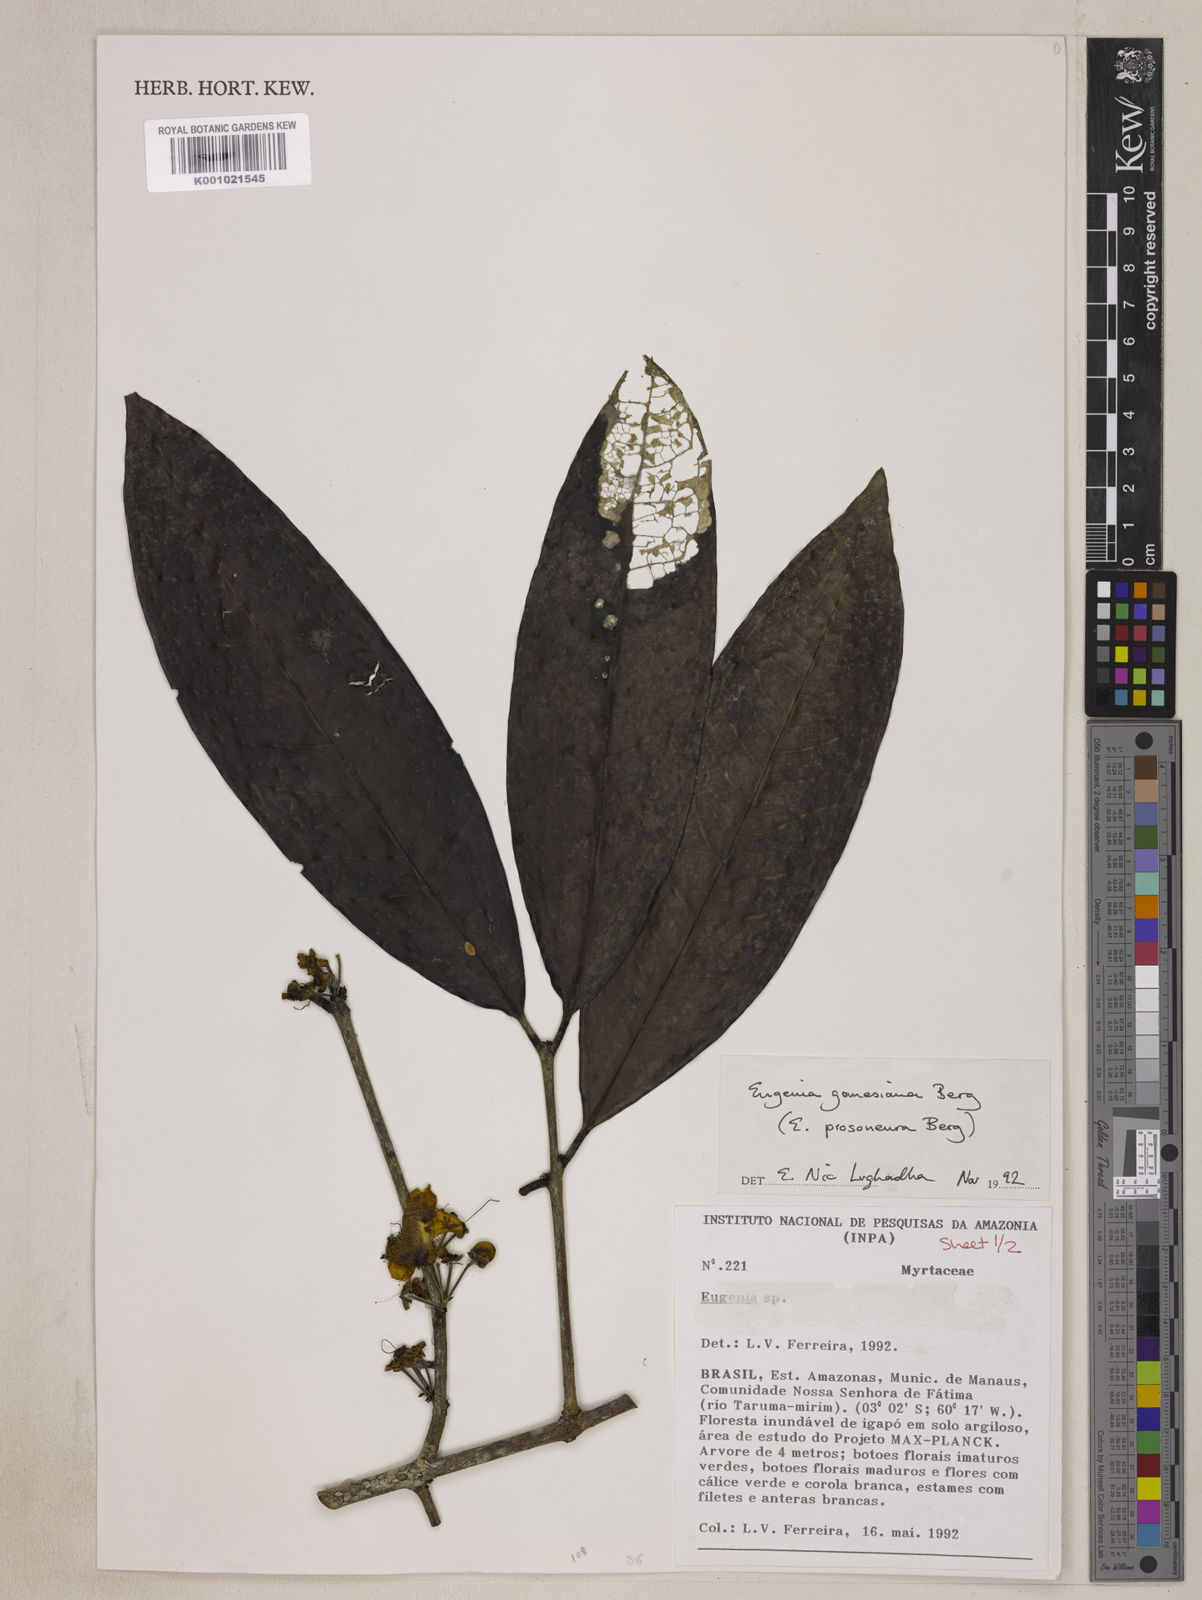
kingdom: Plantae
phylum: Tracheophyta
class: Magnoliopsida
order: Myrtales
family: Myrtaceae
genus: Eugenia
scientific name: Eugenia gomesiana
